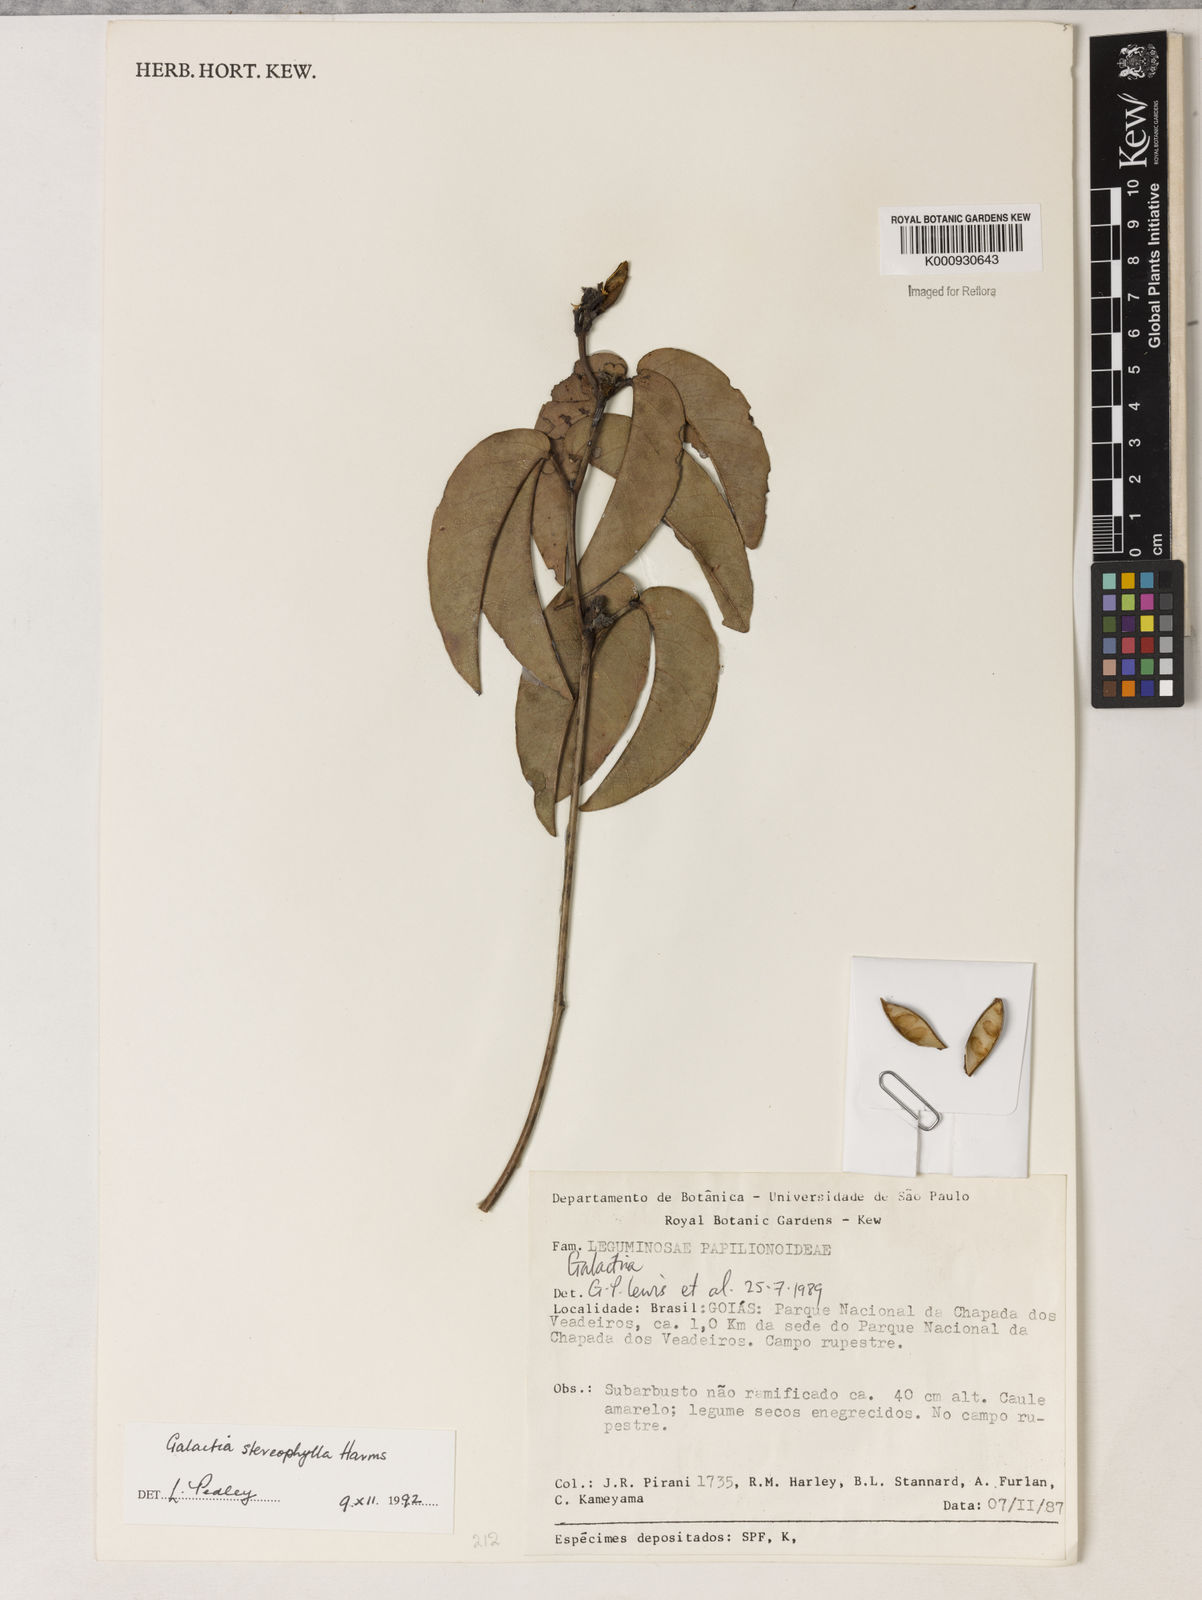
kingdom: Plantae
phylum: Tracheophyta
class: Magnoliopsida
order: Fabales
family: Fabaceae
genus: Betencourtia
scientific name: Betencourtia stereophylla
